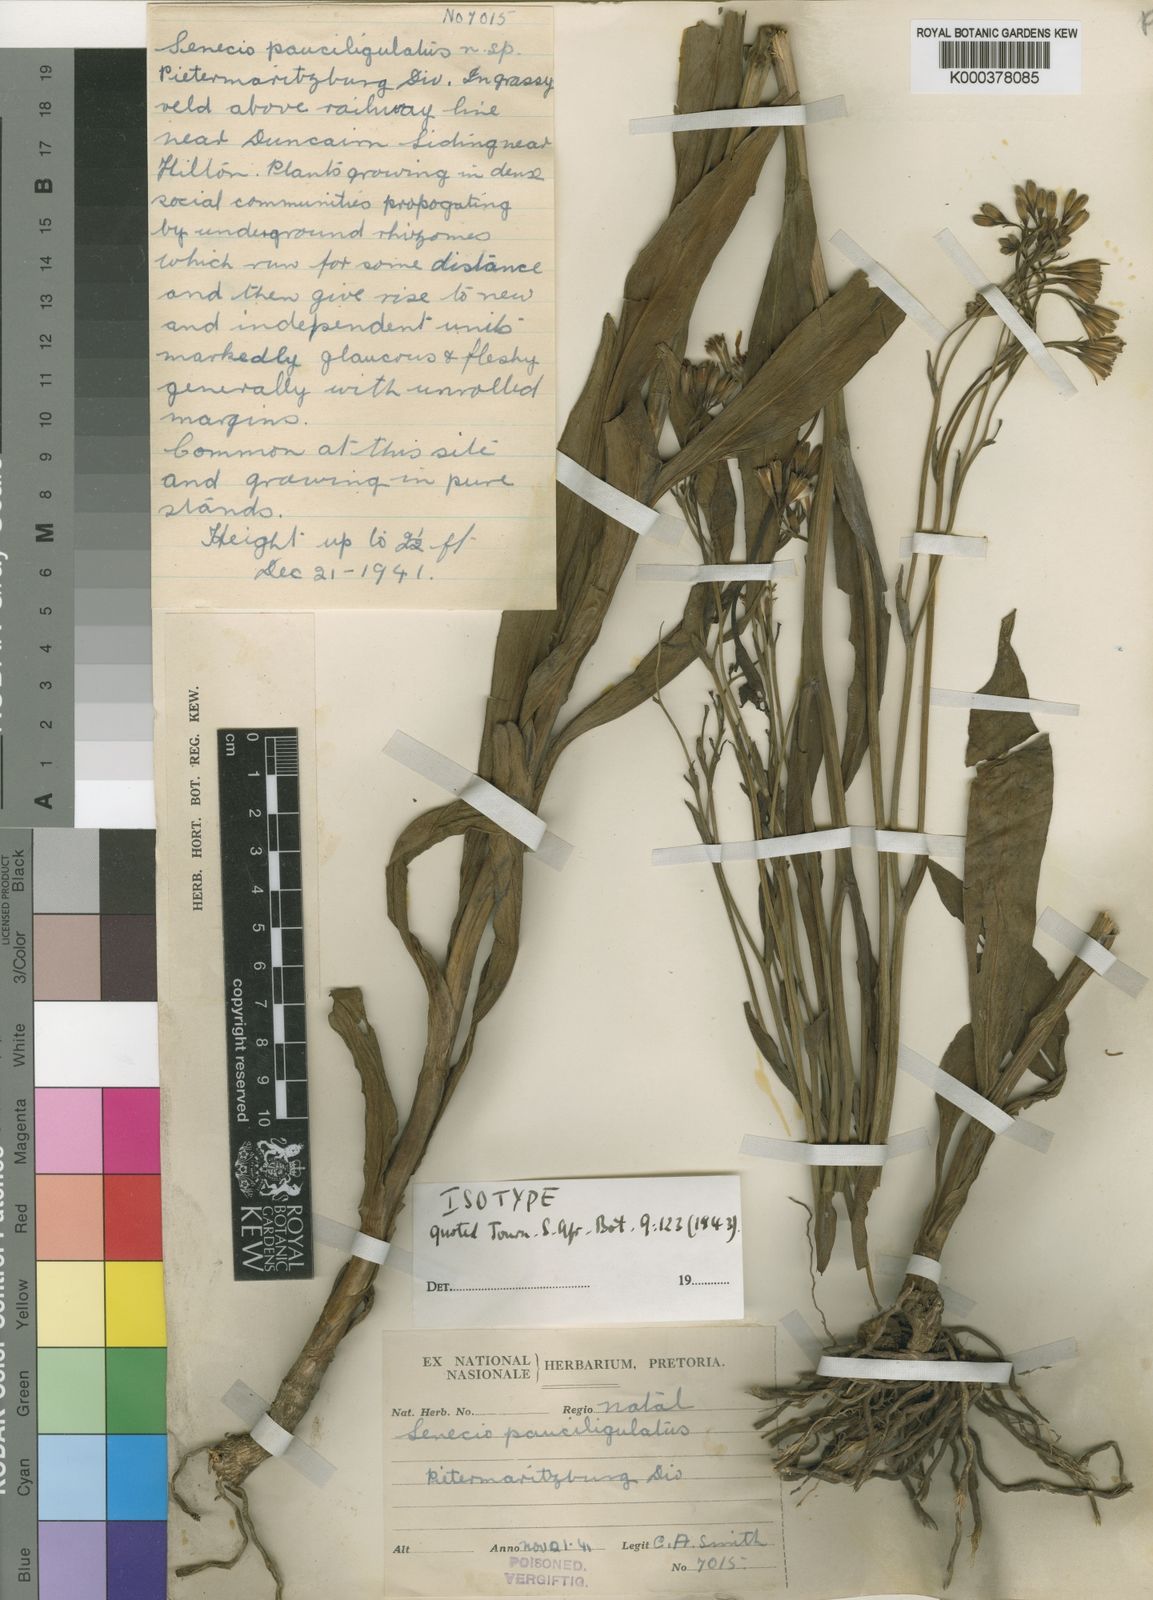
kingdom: Plantae
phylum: Tracheophyta
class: Magnoliopsida
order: Asterales
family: Asteraceae
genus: Senecio
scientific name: Senecio adnatus
